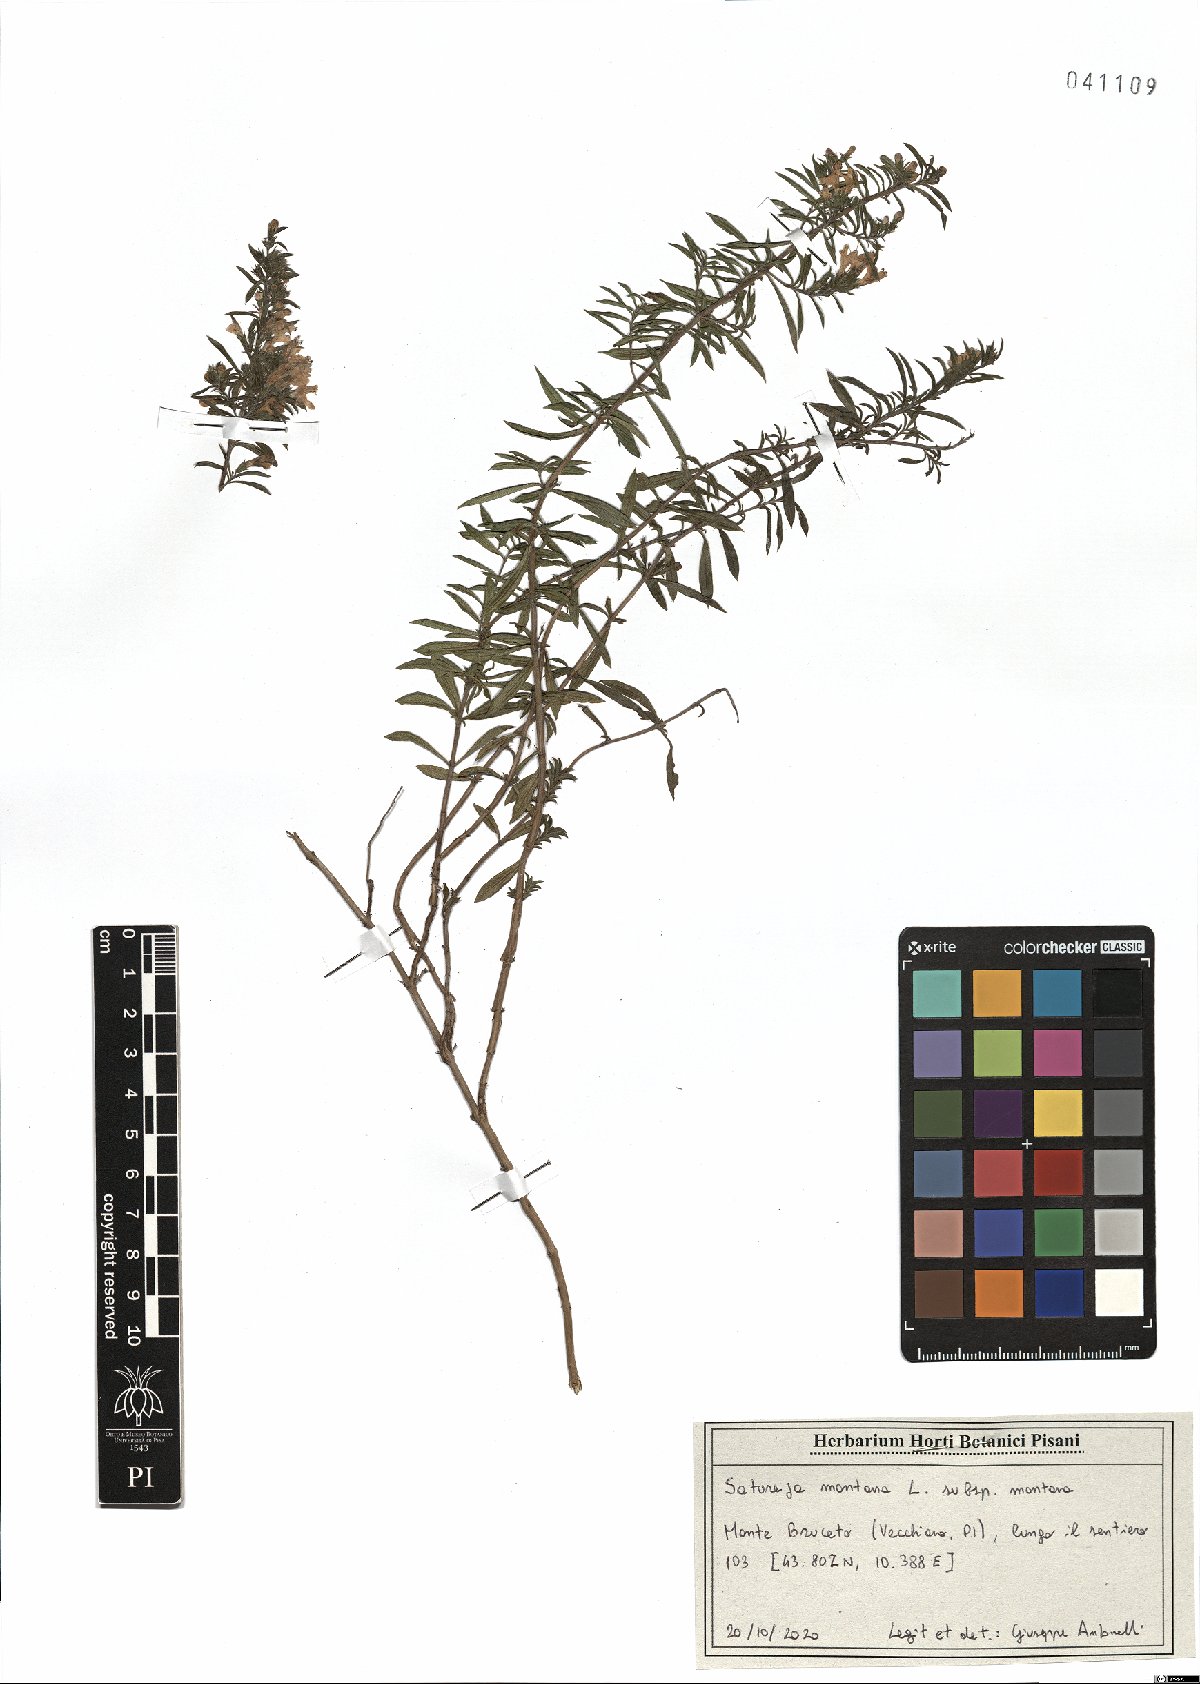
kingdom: Plantae
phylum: Tracheophyta
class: Magnoliopsida
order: Lamiales
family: Lamiaceae
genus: Satureja
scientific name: Satureja montana
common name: Winter savory
